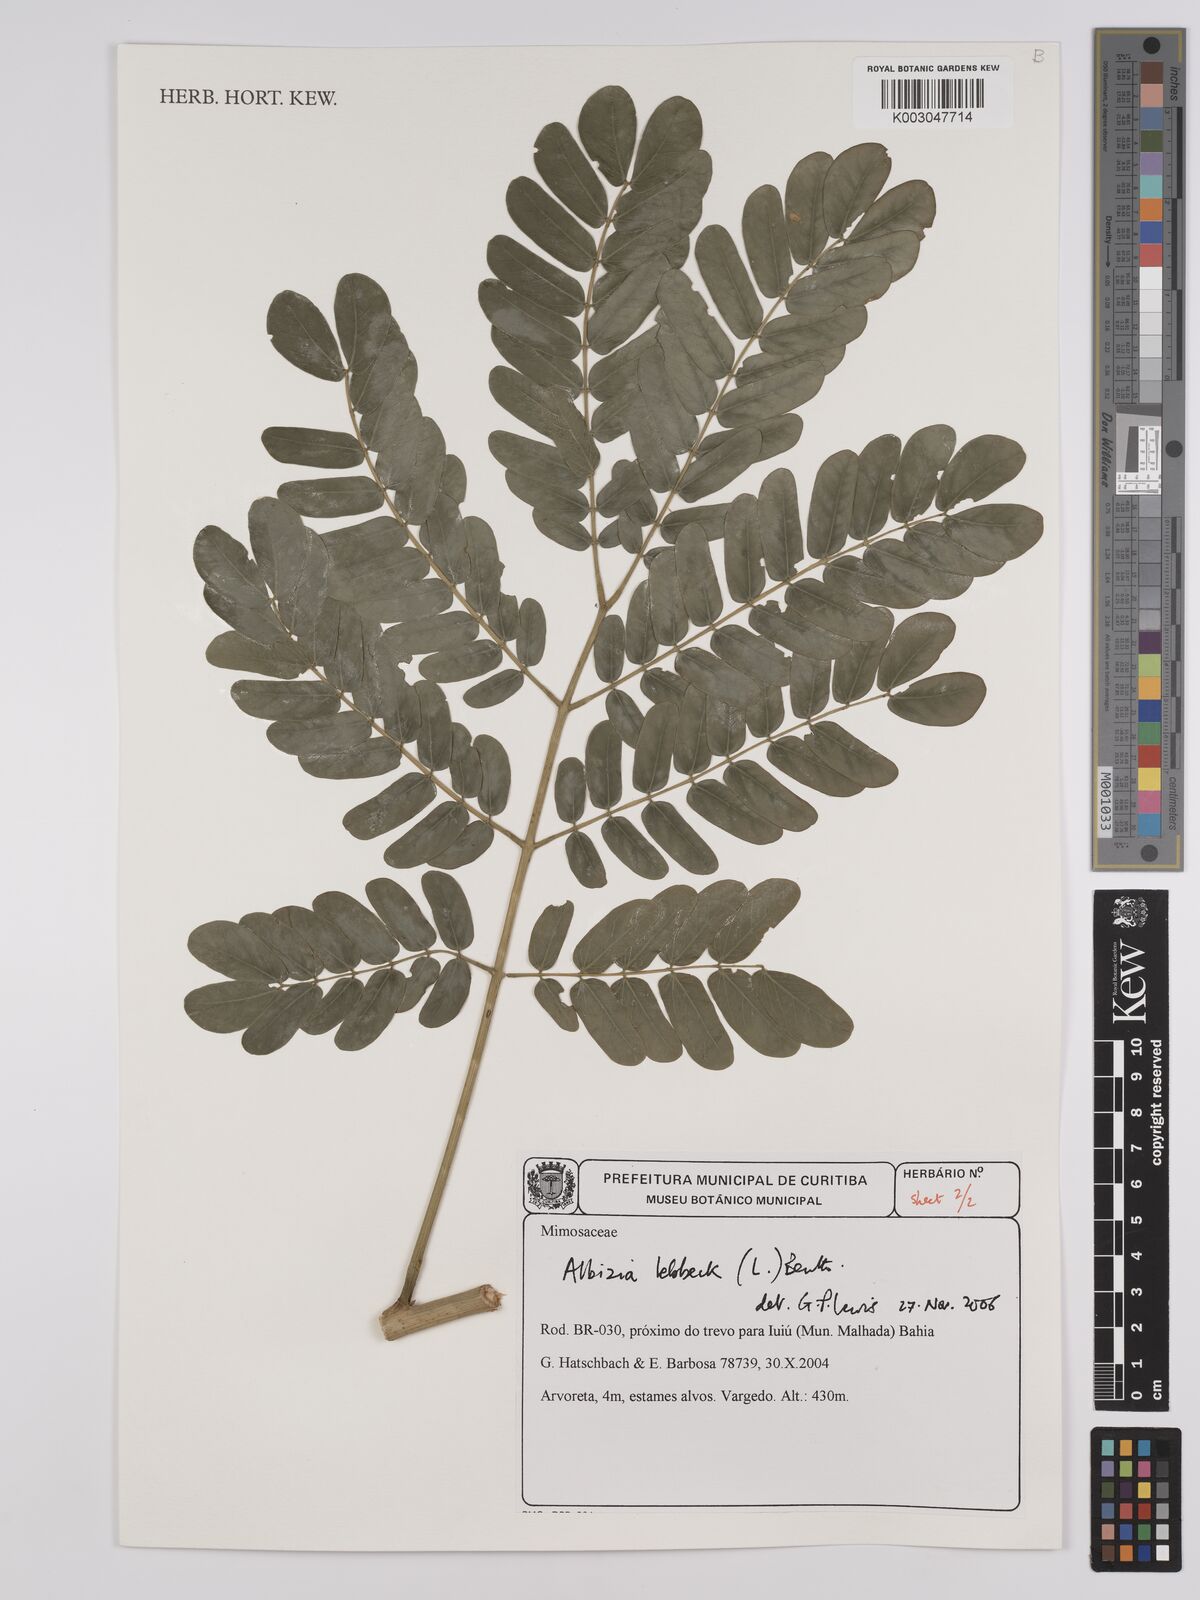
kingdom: Plantae
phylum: Tracheophyta
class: Magnoliopsida
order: Fabales
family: Fabaceae
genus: Albizia
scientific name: Albizia lebbeck
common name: Woman's tongue
